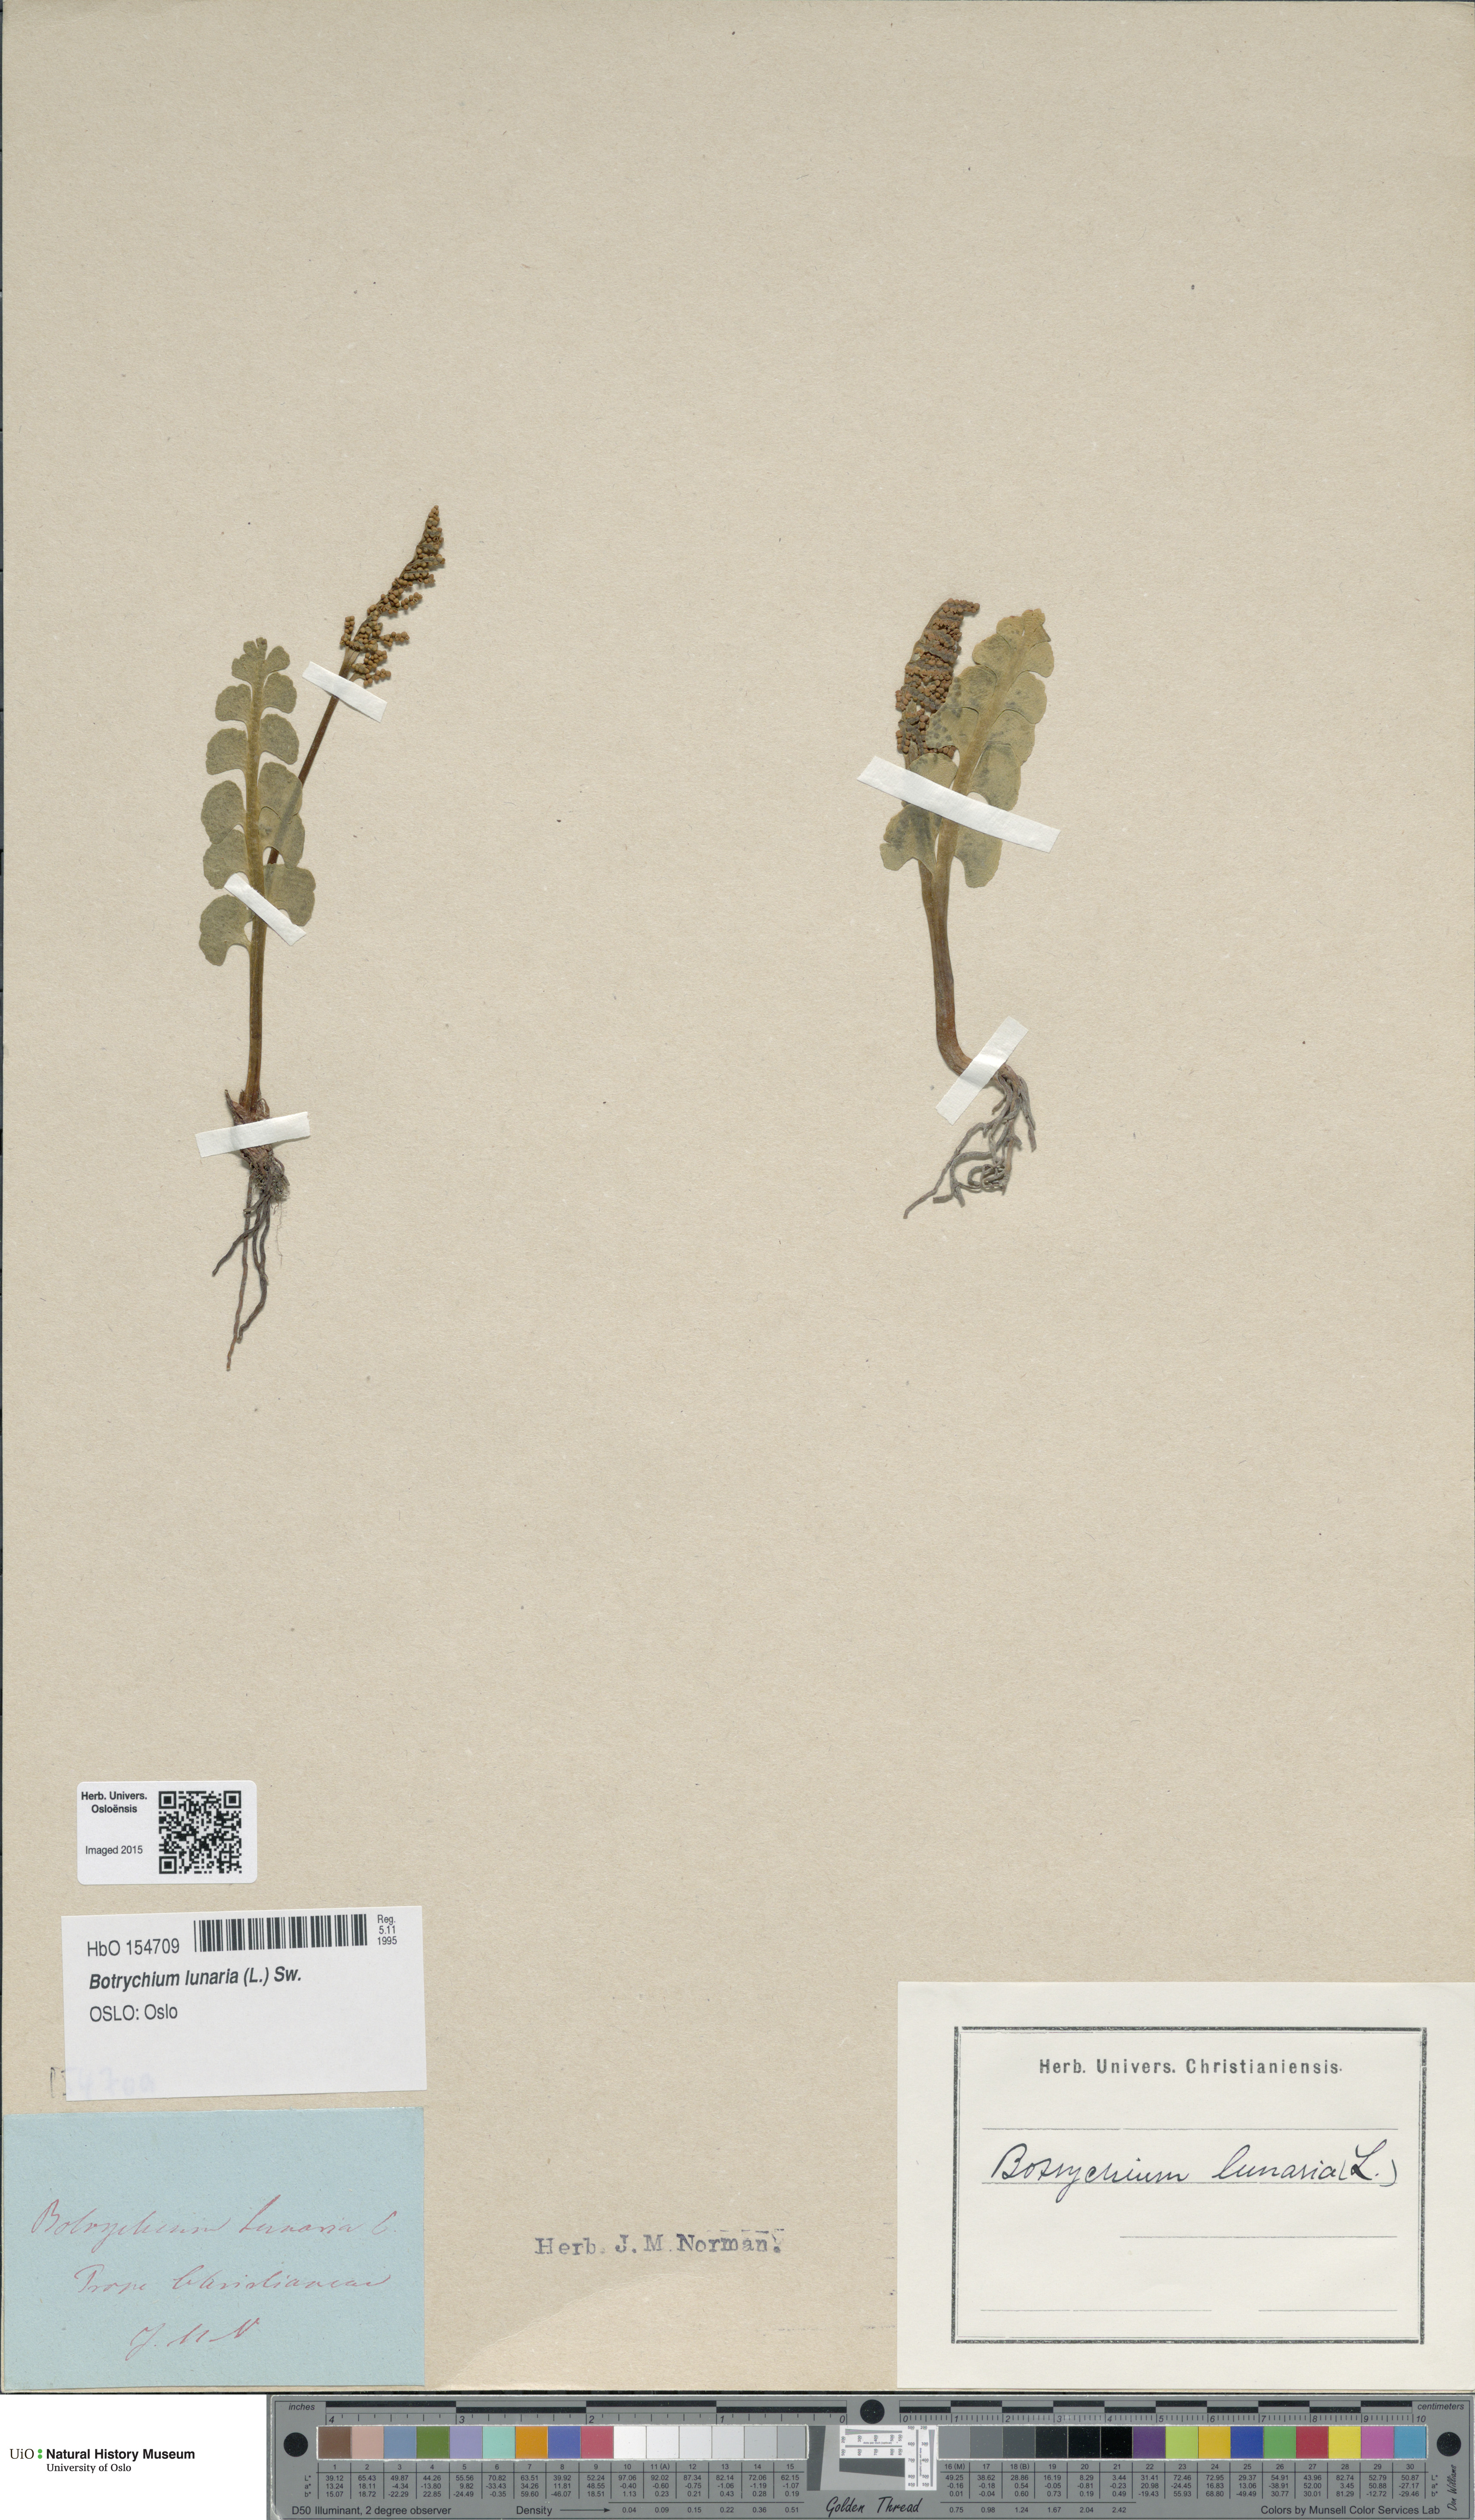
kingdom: Plantae
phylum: Tracheophyta
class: Polypodiopsida
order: Ophioglossales
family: Ophioglossaceae
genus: Botrychium
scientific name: Botrychium lunaria
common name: Moonwort
